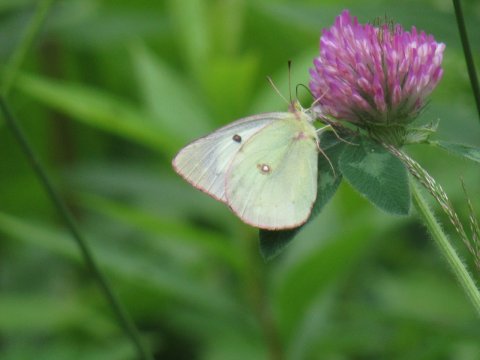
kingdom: Animalia
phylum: Arthropoda
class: Insecta
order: Lepidoptera
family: Pieridae
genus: Colias
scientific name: Colias philodice
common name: Clouded Sulphur
